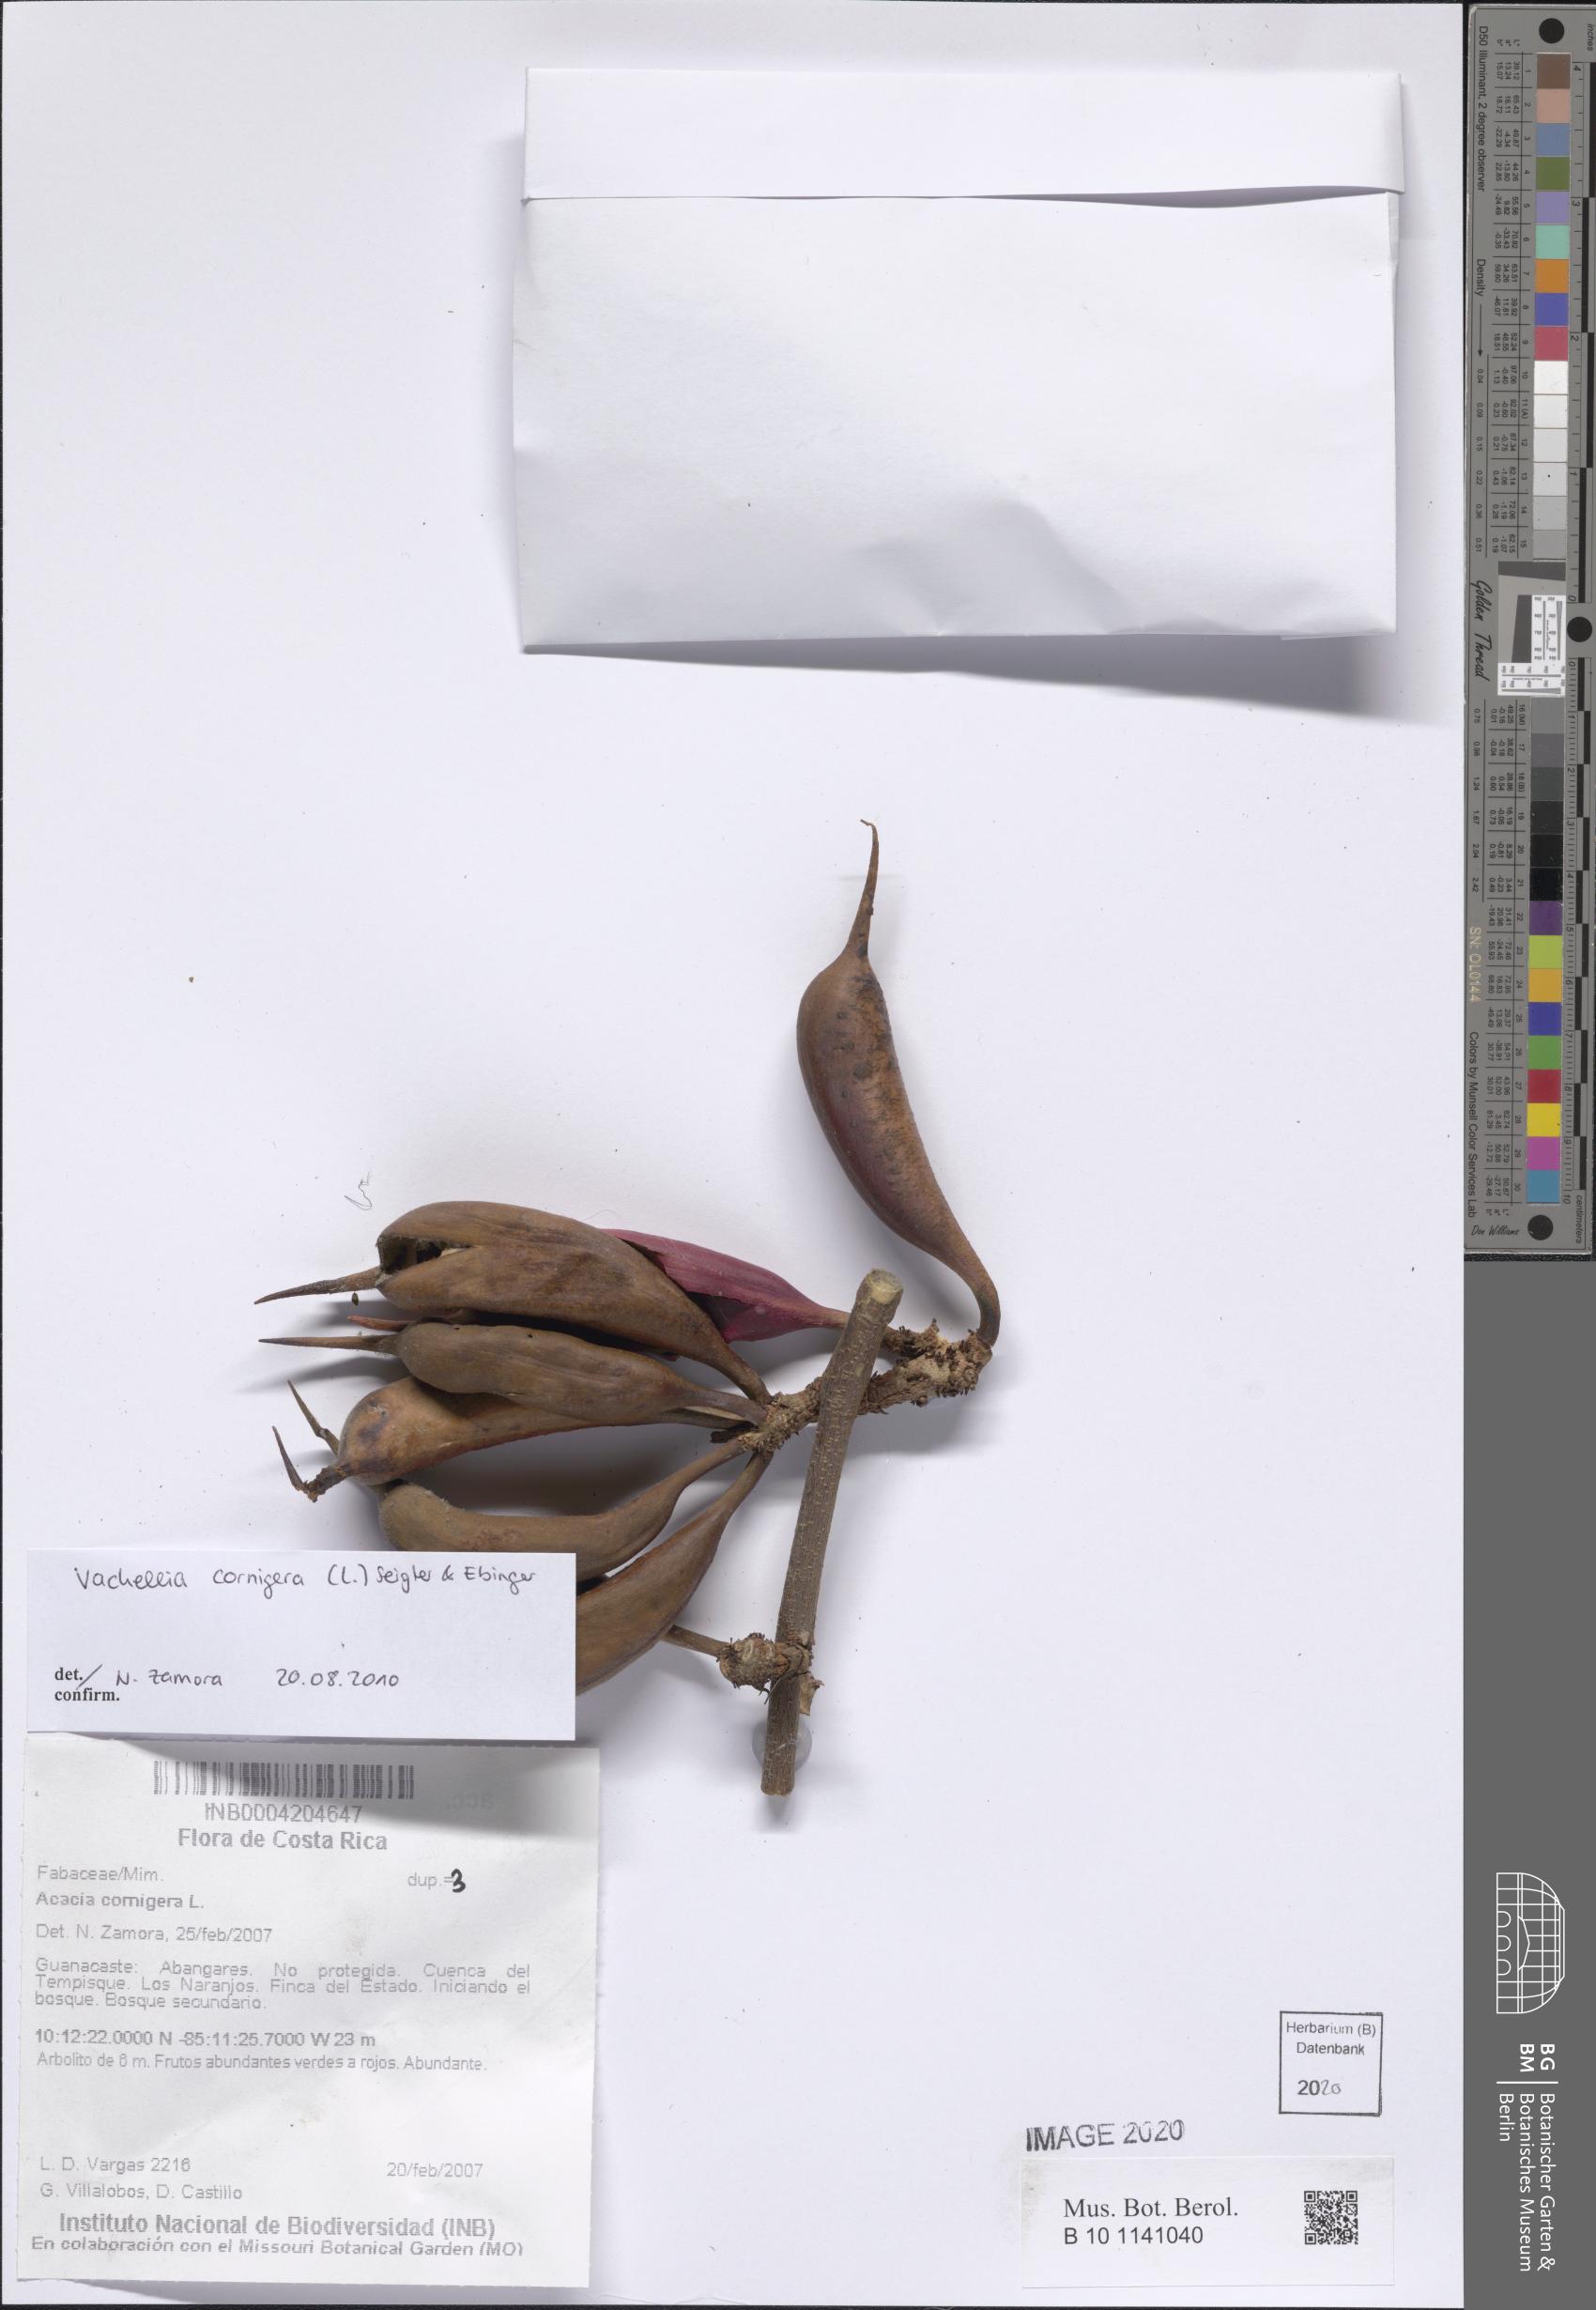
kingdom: Plantae
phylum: Tracheophyta
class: Magnoliopsida
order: Fabales
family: Fabaceae
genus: Vachellia
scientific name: Vachellia cornigera
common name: Bullhorn wattle
